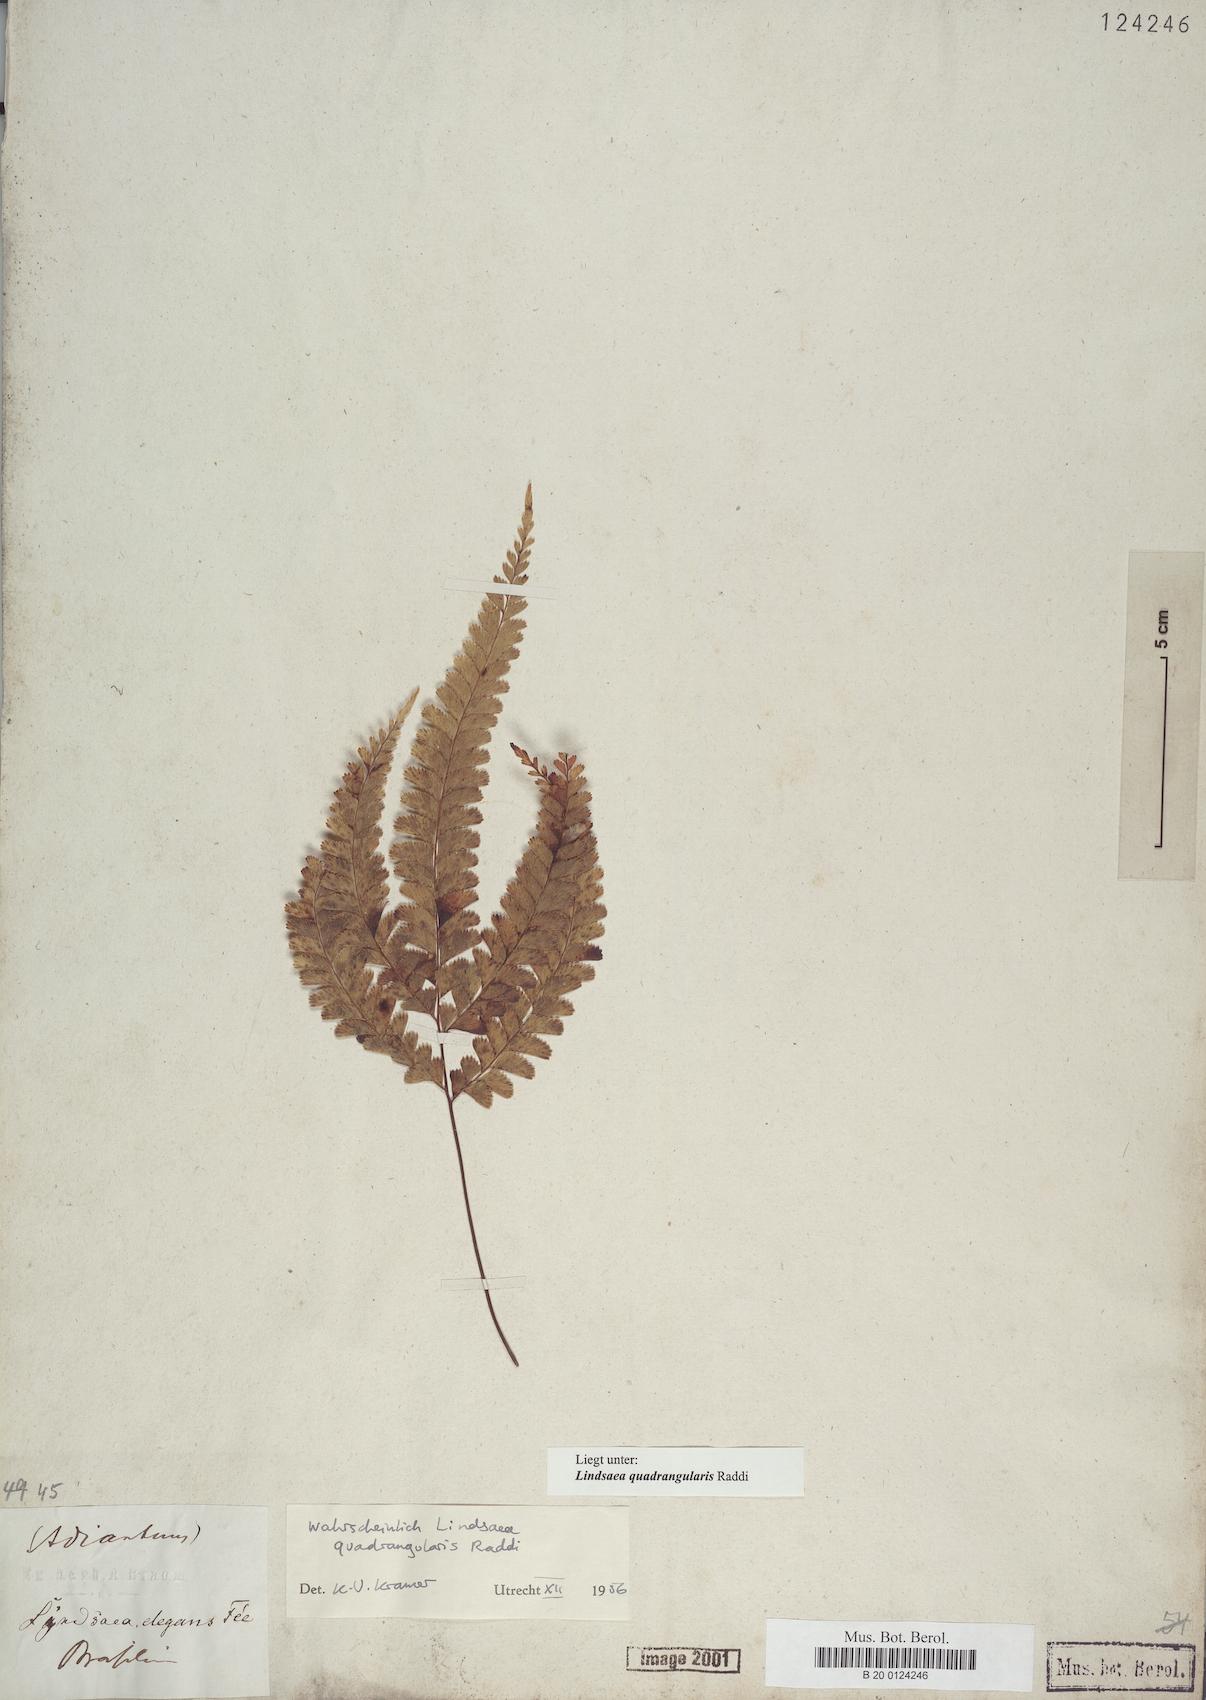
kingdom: Plantae
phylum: Tracheophyta
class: Polypodiopsida
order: Polypodiales
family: Lindsaeaceae
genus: Lindsaea
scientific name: Lindsaea quadrangularis
